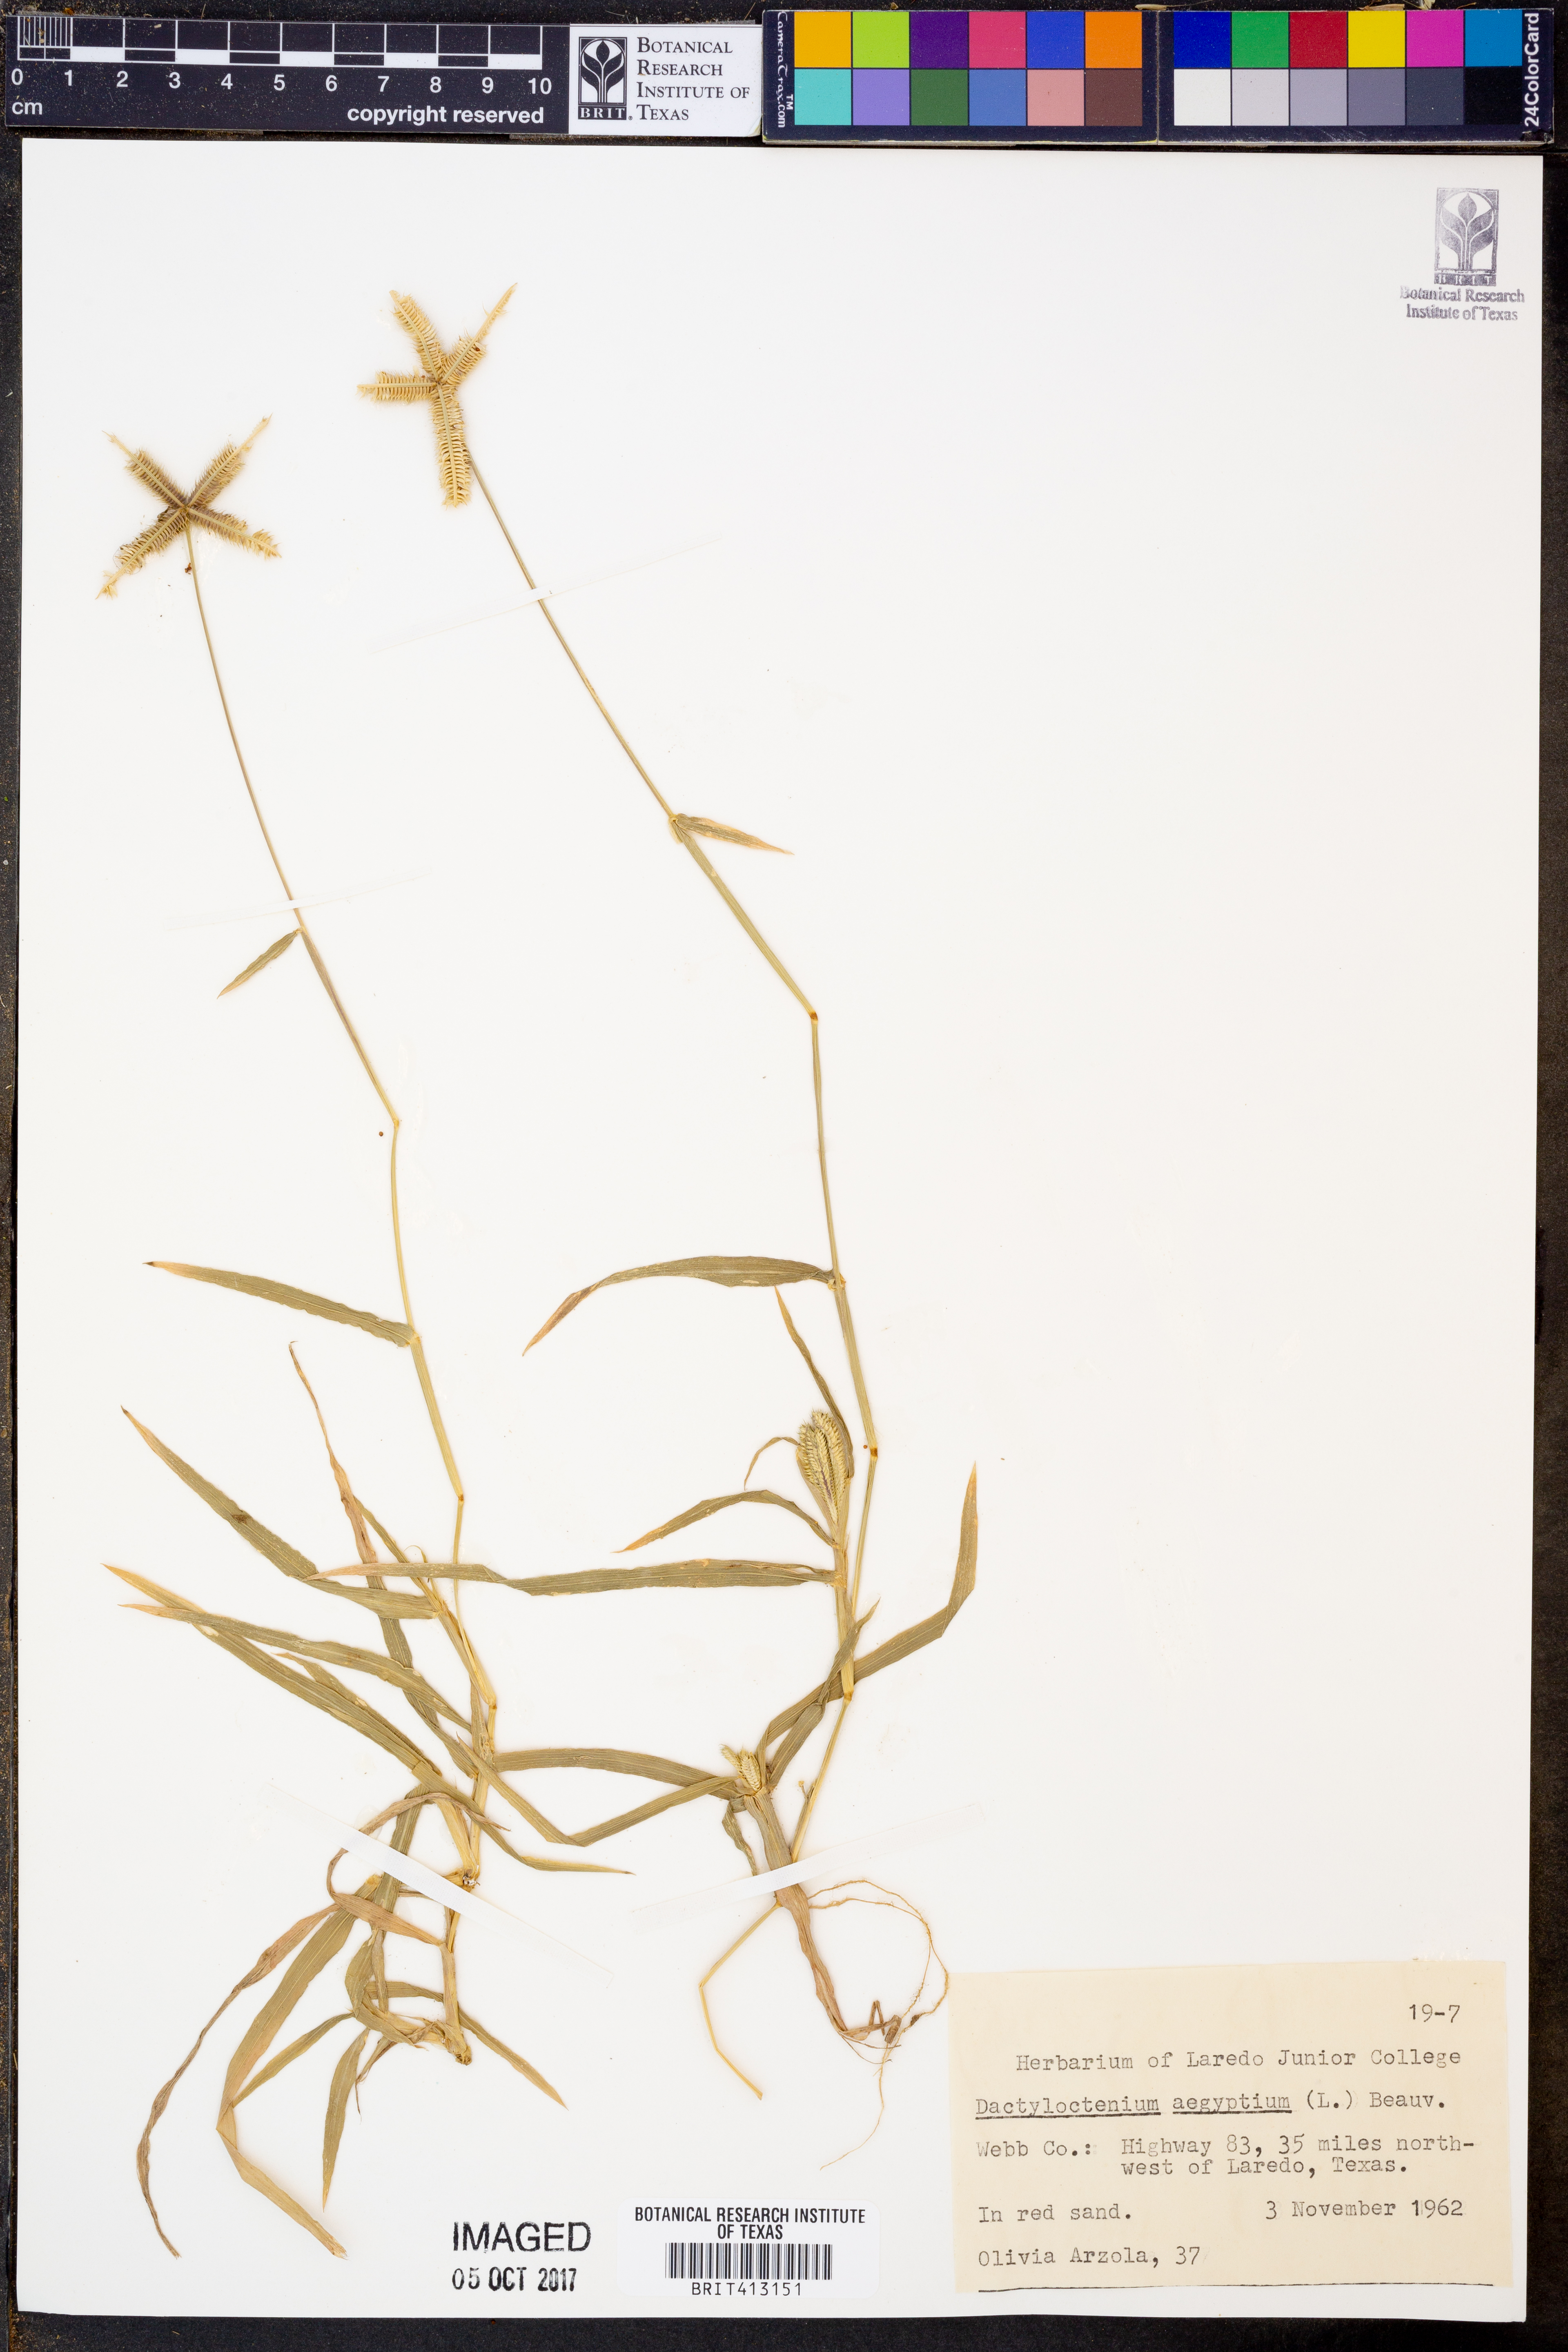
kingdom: Plantae
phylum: Tracheophyta
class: Liliopsida
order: Poales
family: Poaceae
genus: Dactyloctenium
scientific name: Dactyloctenium aegyptium
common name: Egyptian grass
